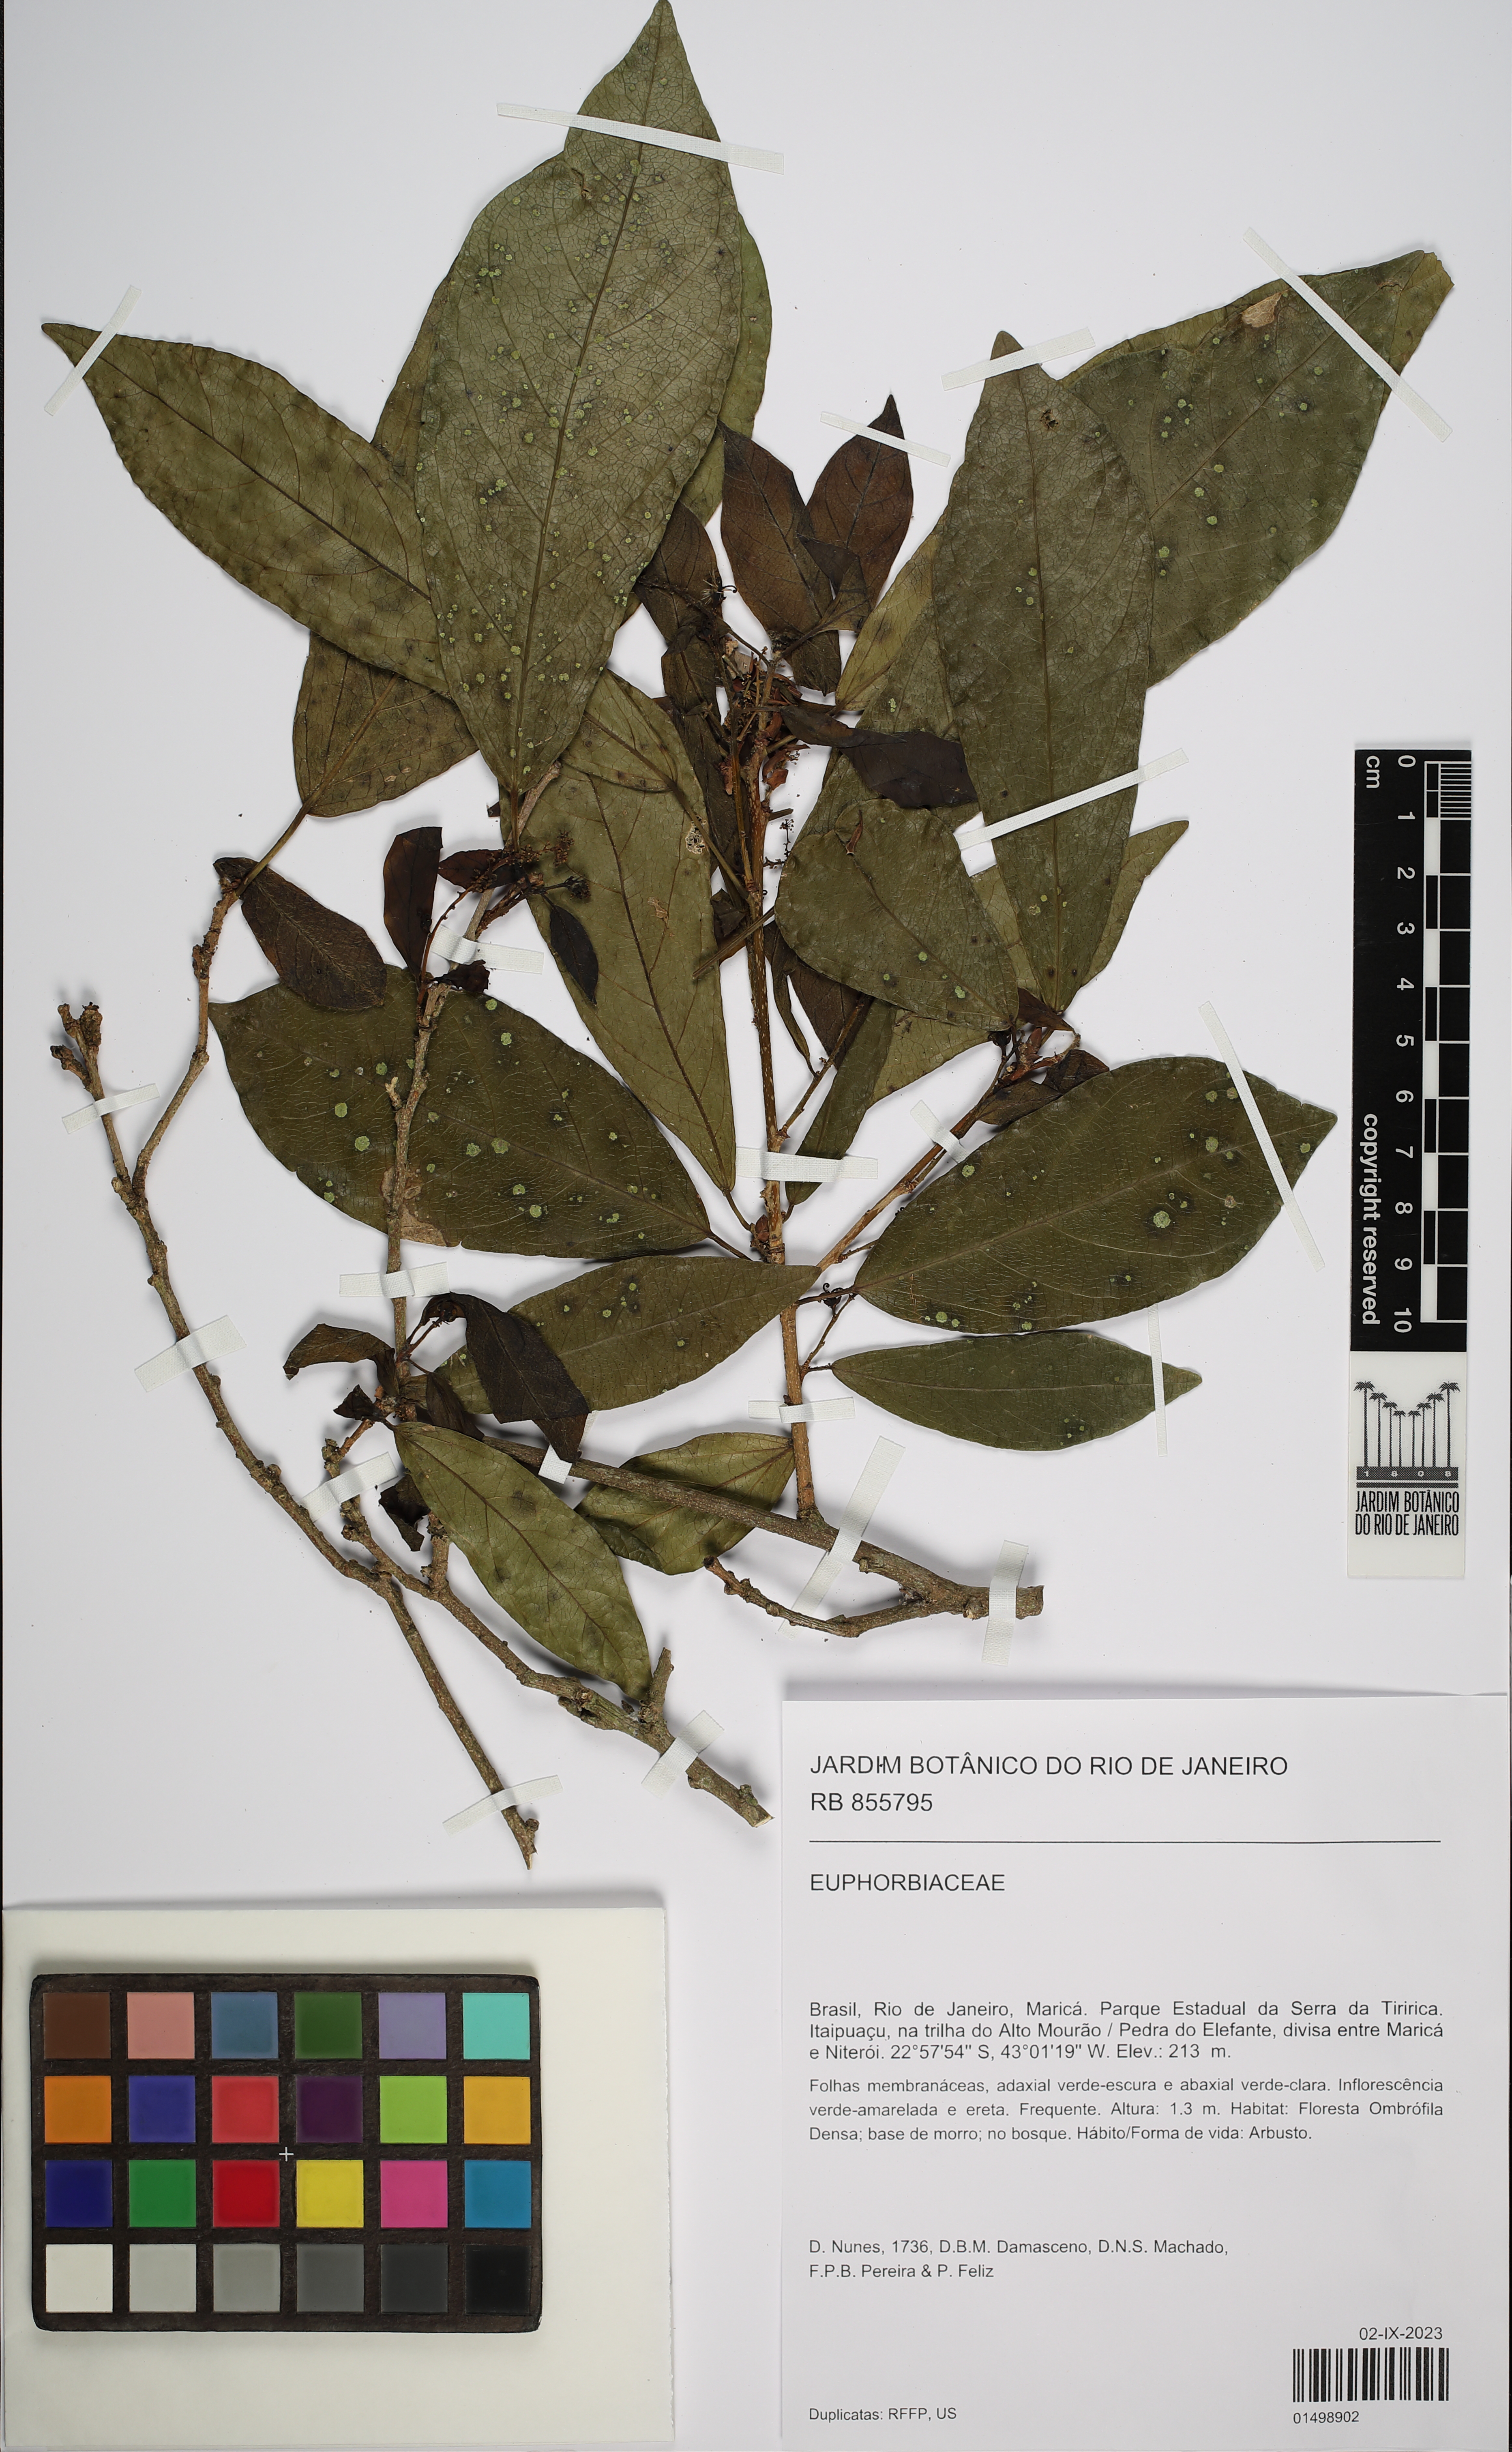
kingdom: Plantae
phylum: Tracheophyta
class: Magnoliopsida
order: Malpighiales
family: Euphorbiaceae
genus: Actinostemon
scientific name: Actinostemon klotzschii
